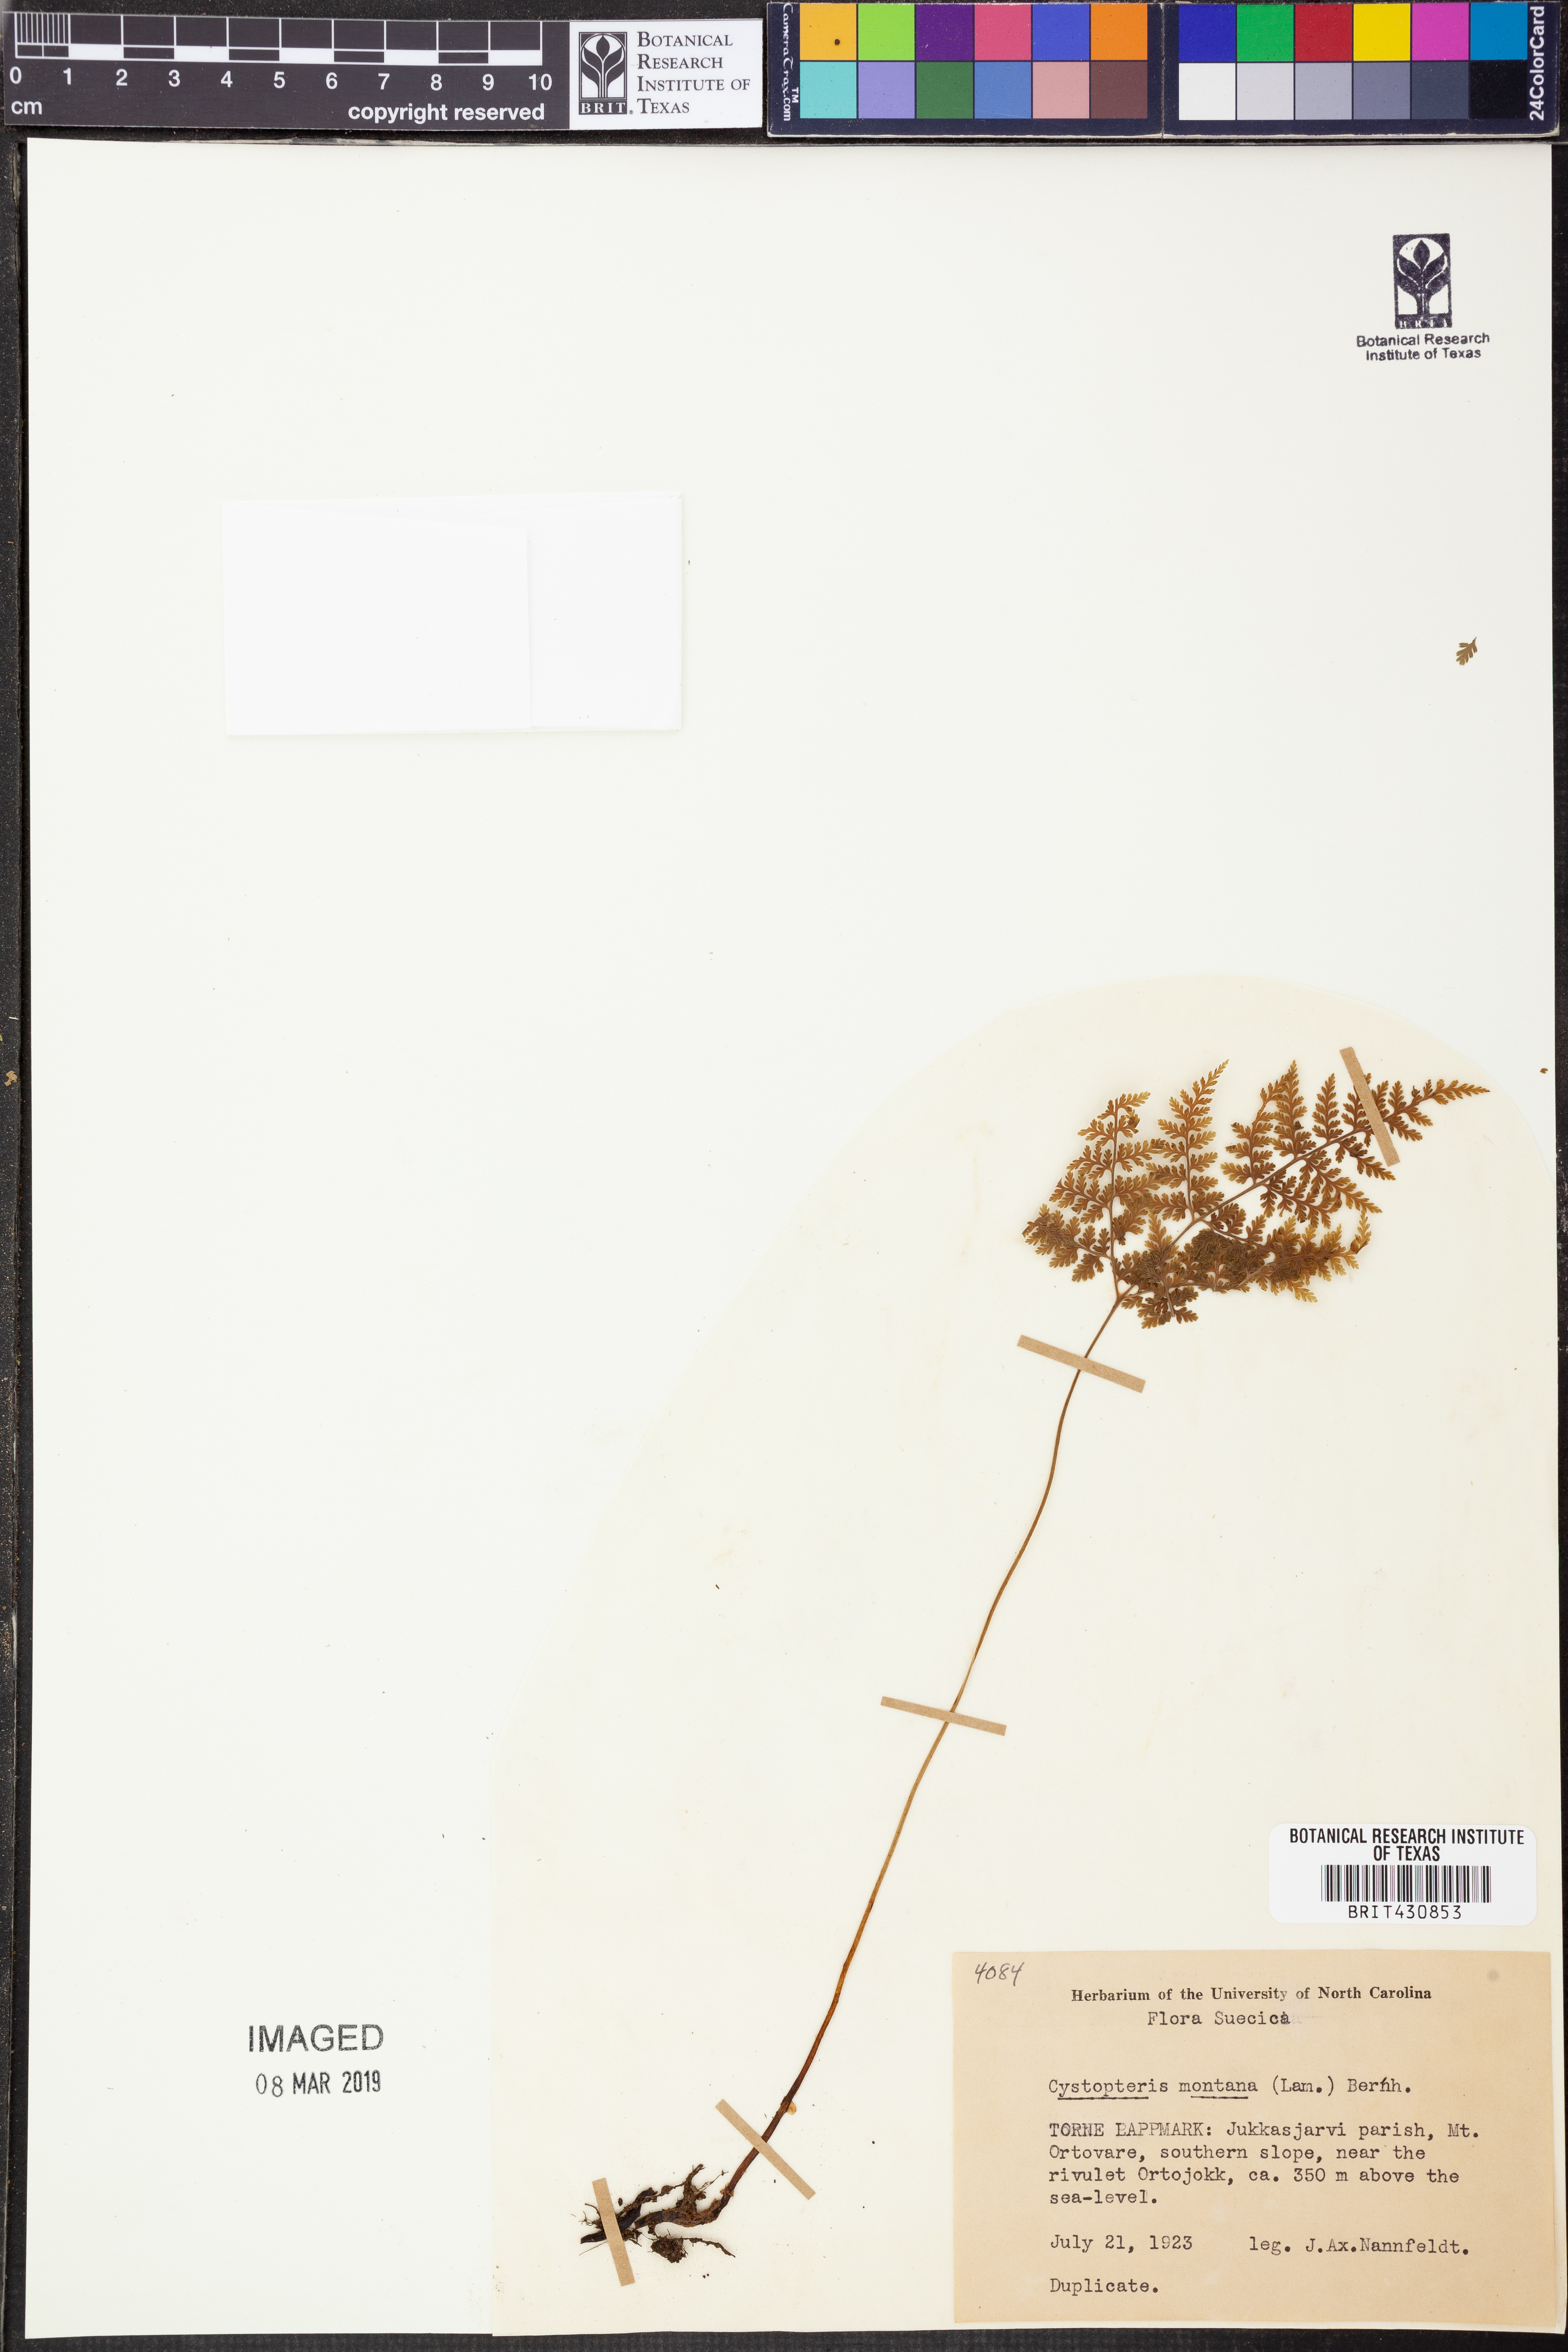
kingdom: Plantae
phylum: Tracheophyta
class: Polypodiopsida
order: Polypodiales
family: Cystopteridaceae
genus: Cystopteris
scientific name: Cystopteris montana
